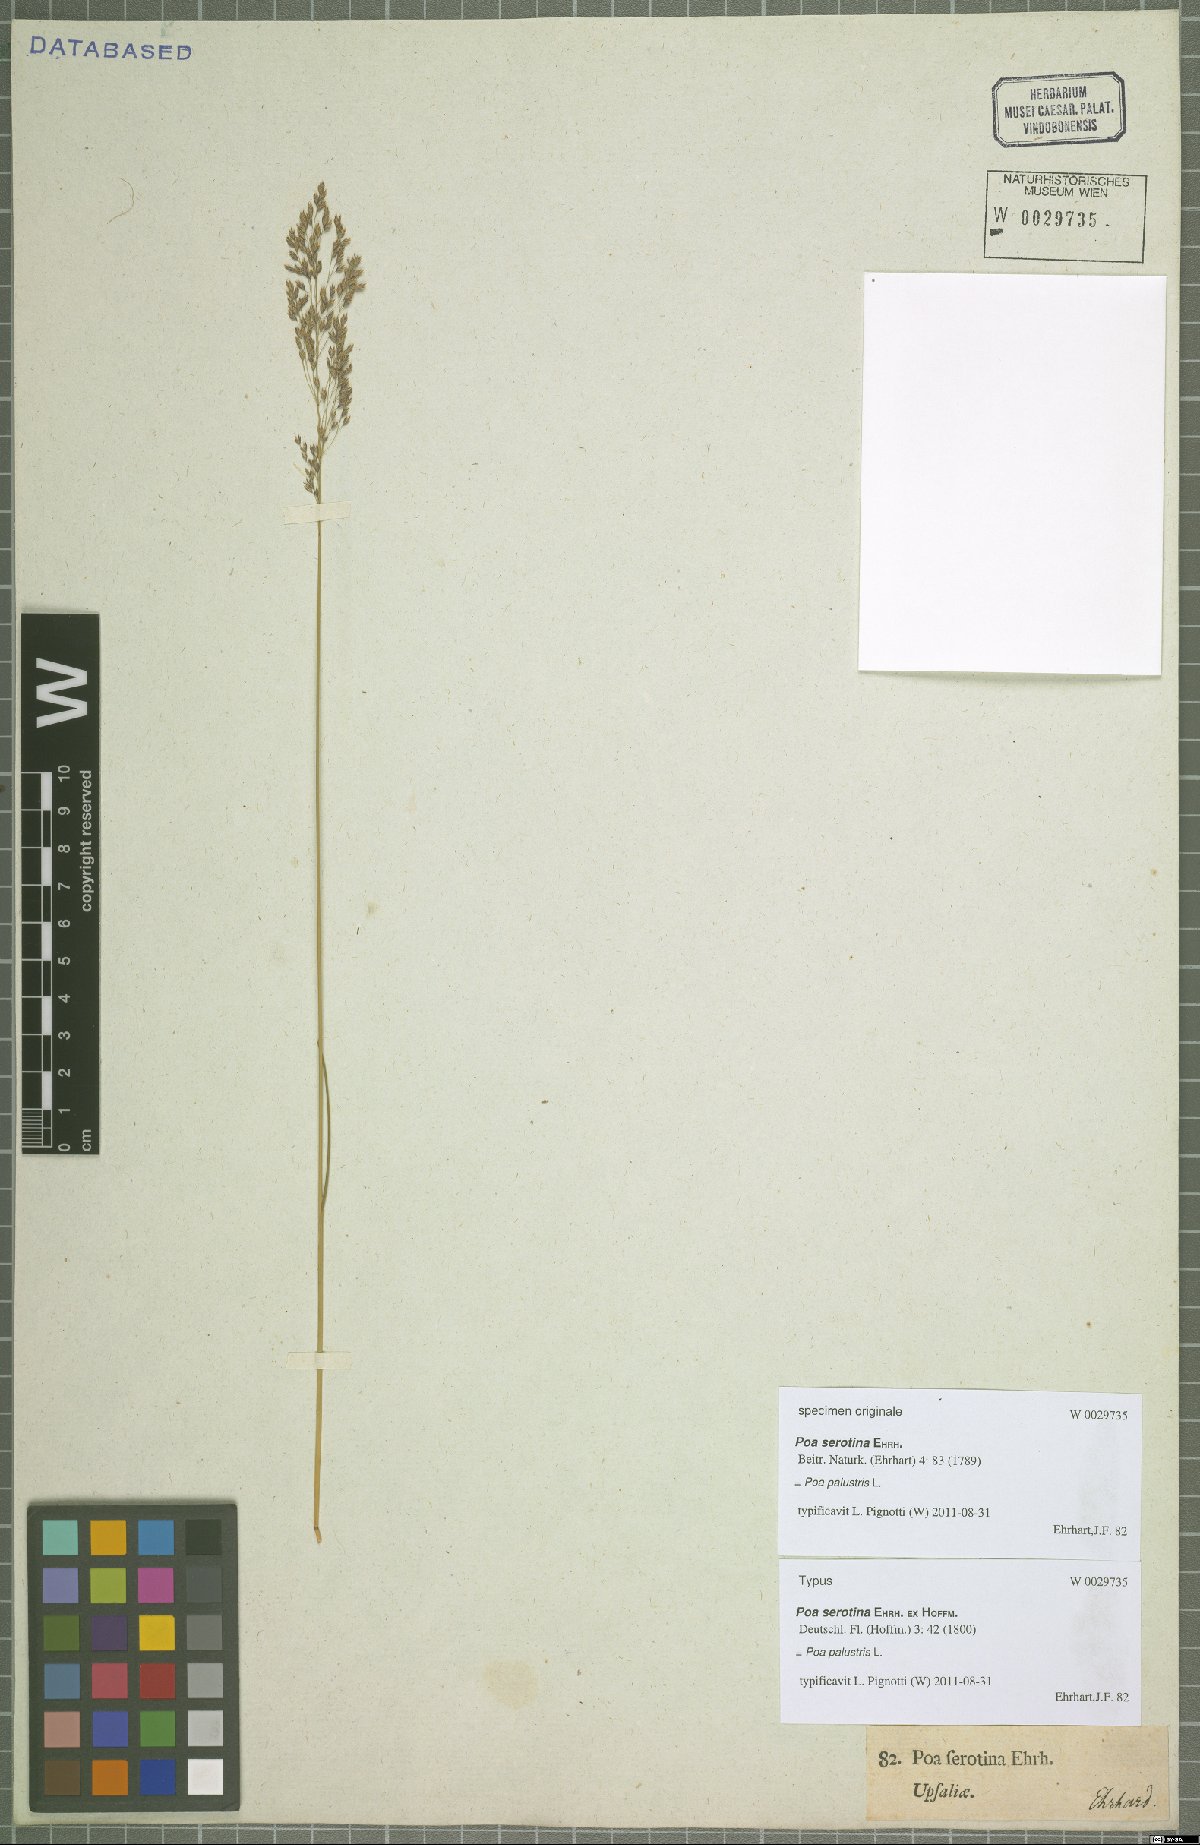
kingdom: Plantae
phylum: Tracheophyta
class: Liliopsida
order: Poales
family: Poaceae
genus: Poa
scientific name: Poa palustris
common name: Swamp meadow-grass
